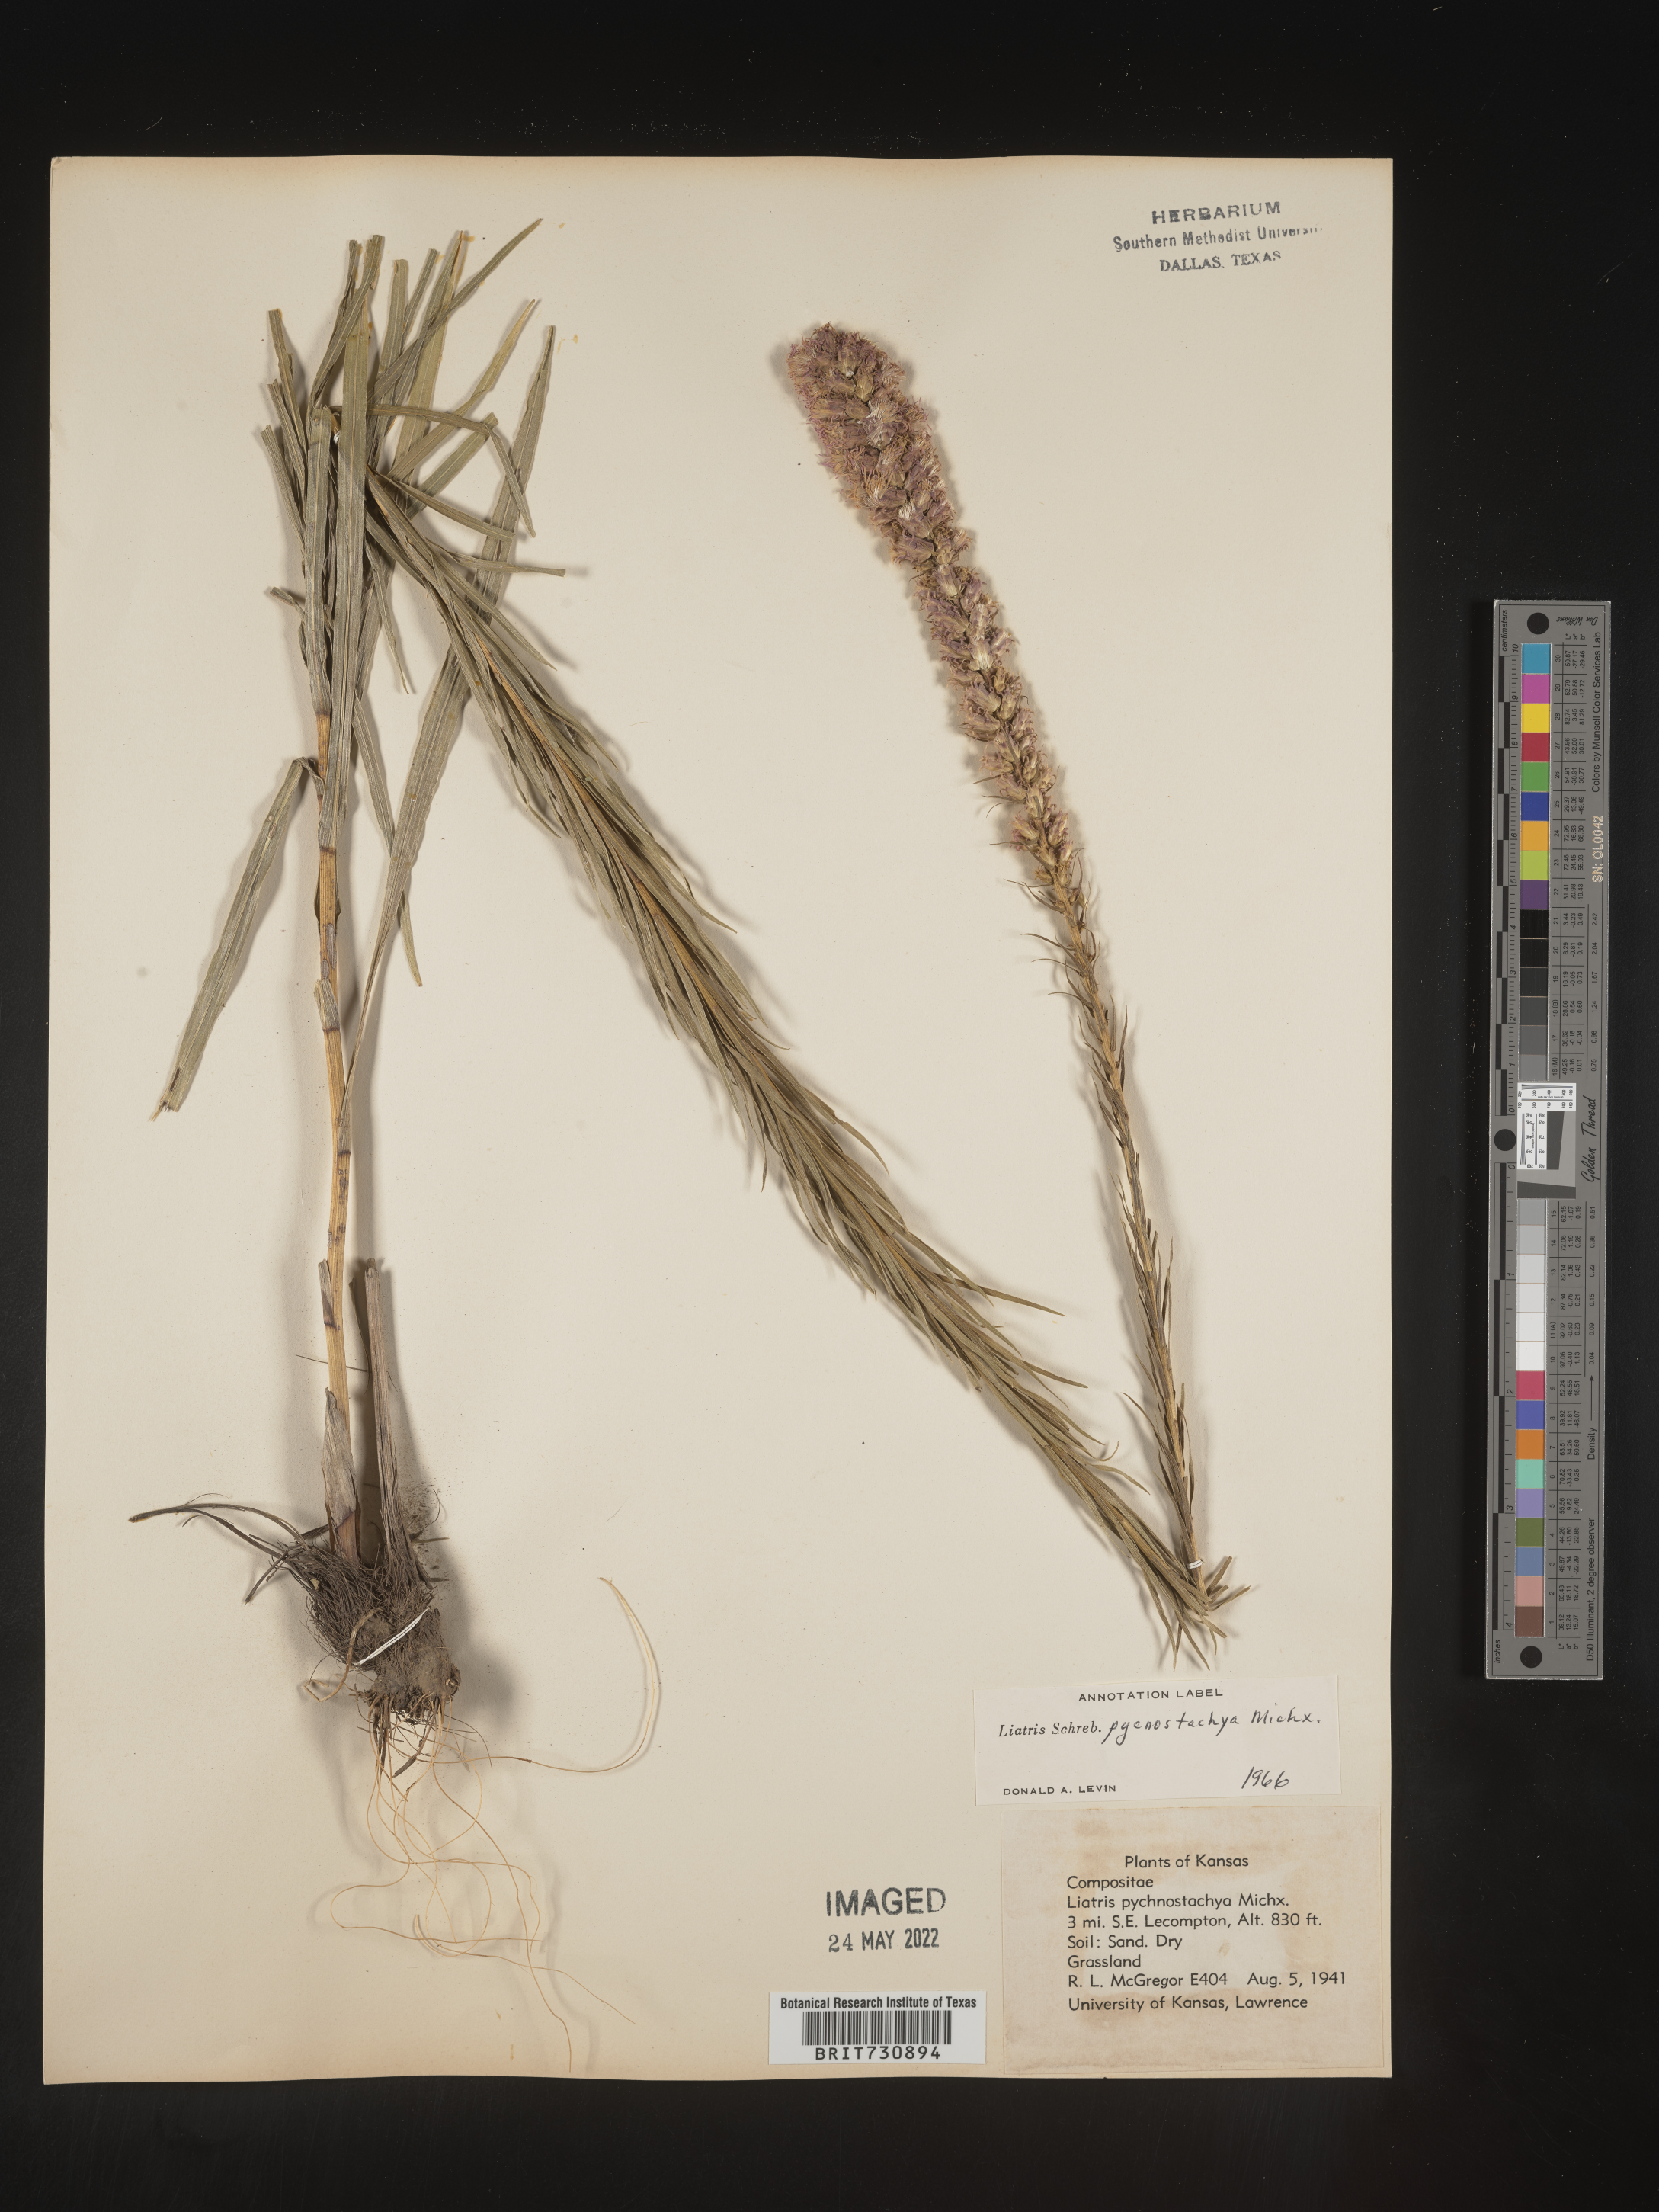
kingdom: Plantae
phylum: Tracheophyta
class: Magnoliopsida
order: Asterales
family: Asteraceae
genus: Liatris
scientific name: Liatris pycnostachya
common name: Cattail gayfeather
